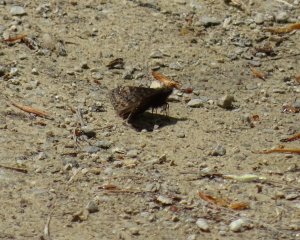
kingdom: Animalia
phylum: Arthropoda
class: Insecta
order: Lepidoptera
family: Hesperiidae
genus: Erynnis
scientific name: Erynnis
